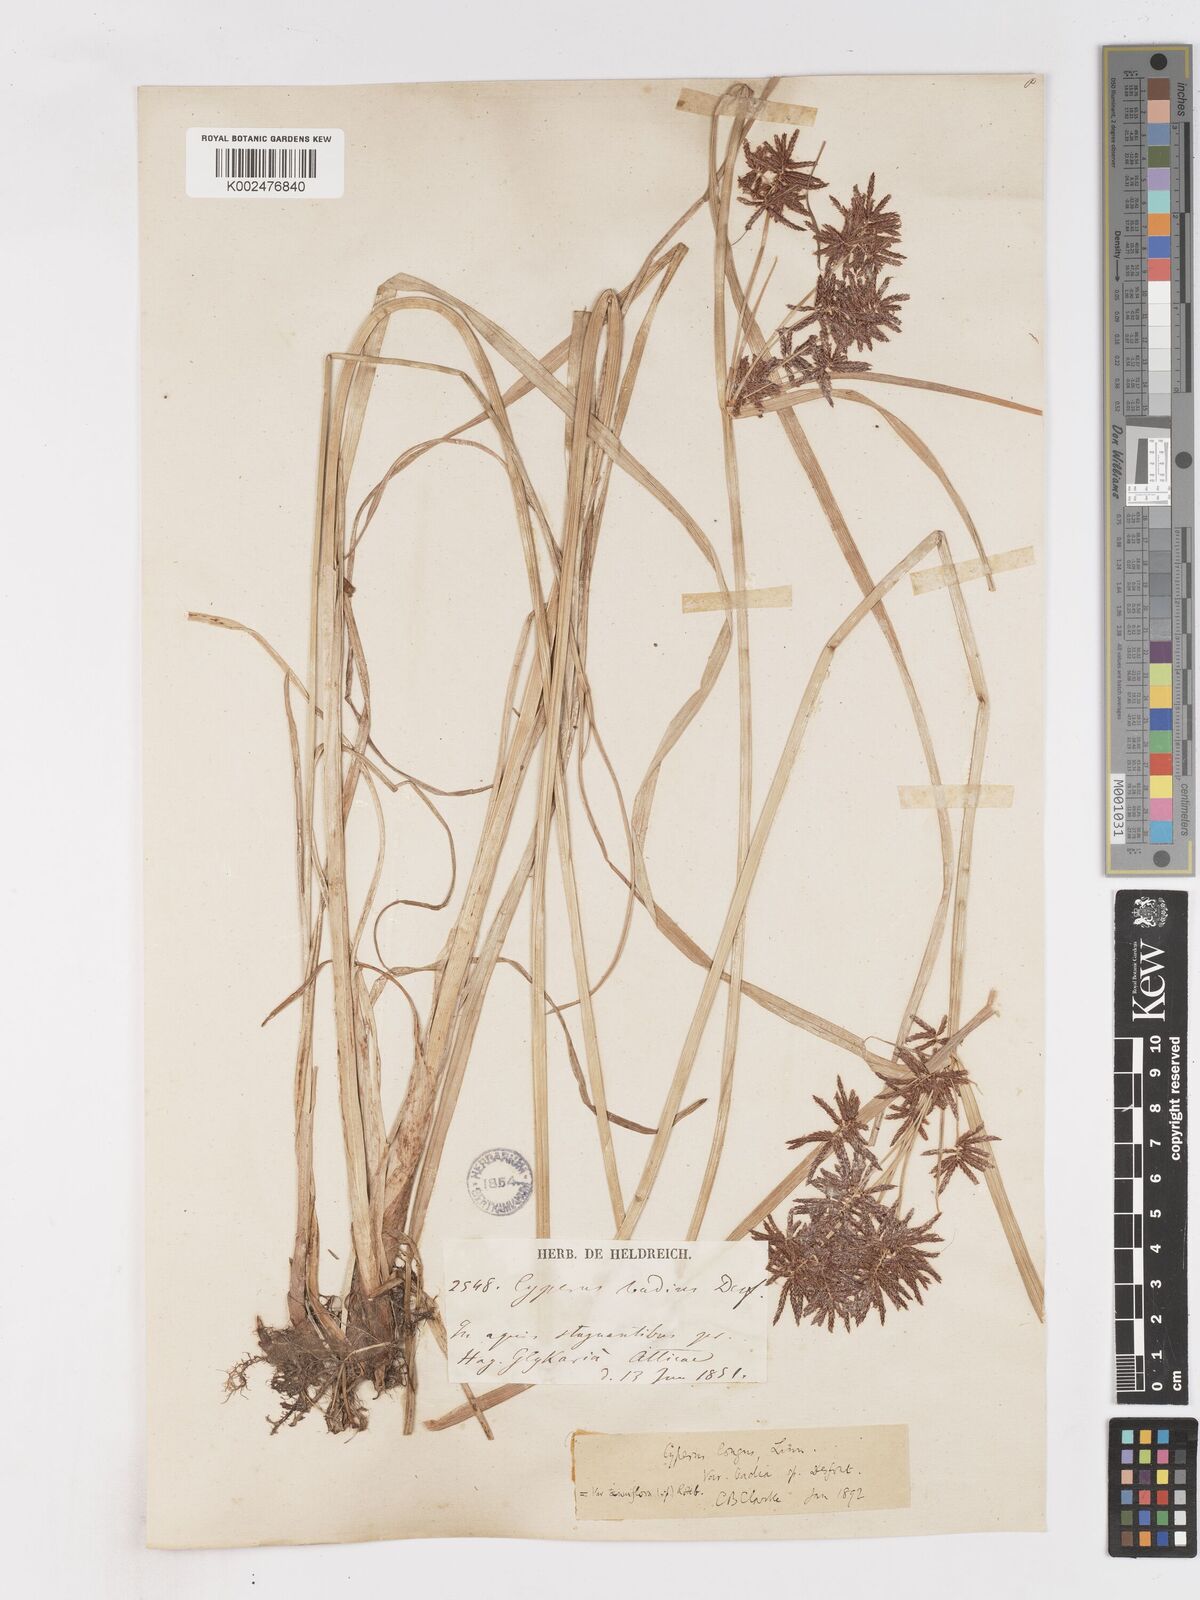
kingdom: Plantae
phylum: Tracheophyta
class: Liliopsida
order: Poales
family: Cyperaceae
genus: Cyperus
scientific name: Cyperus longus
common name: Galingale
